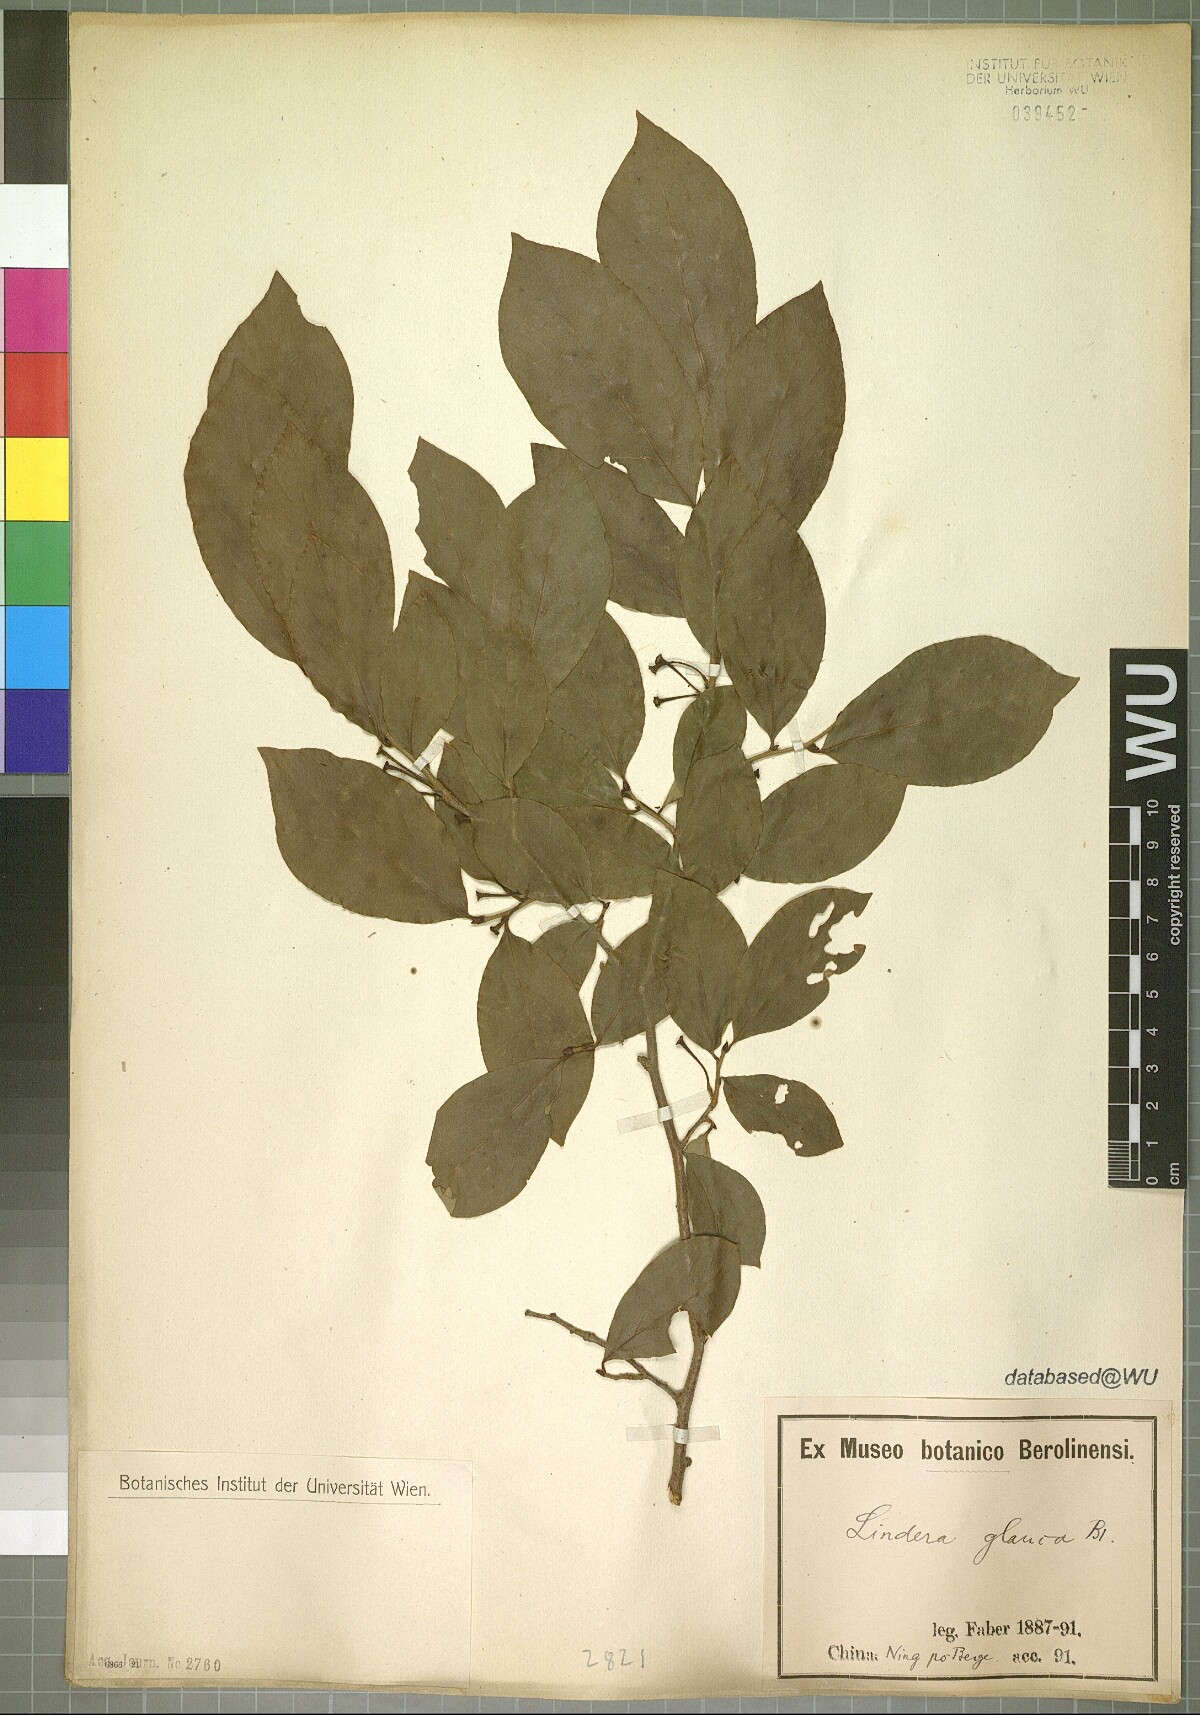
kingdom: Plantae
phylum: Tracheophyta
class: Magnoliopsida
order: Laurales
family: Lauraceae
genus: Lindera
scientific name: Lindera glauca
